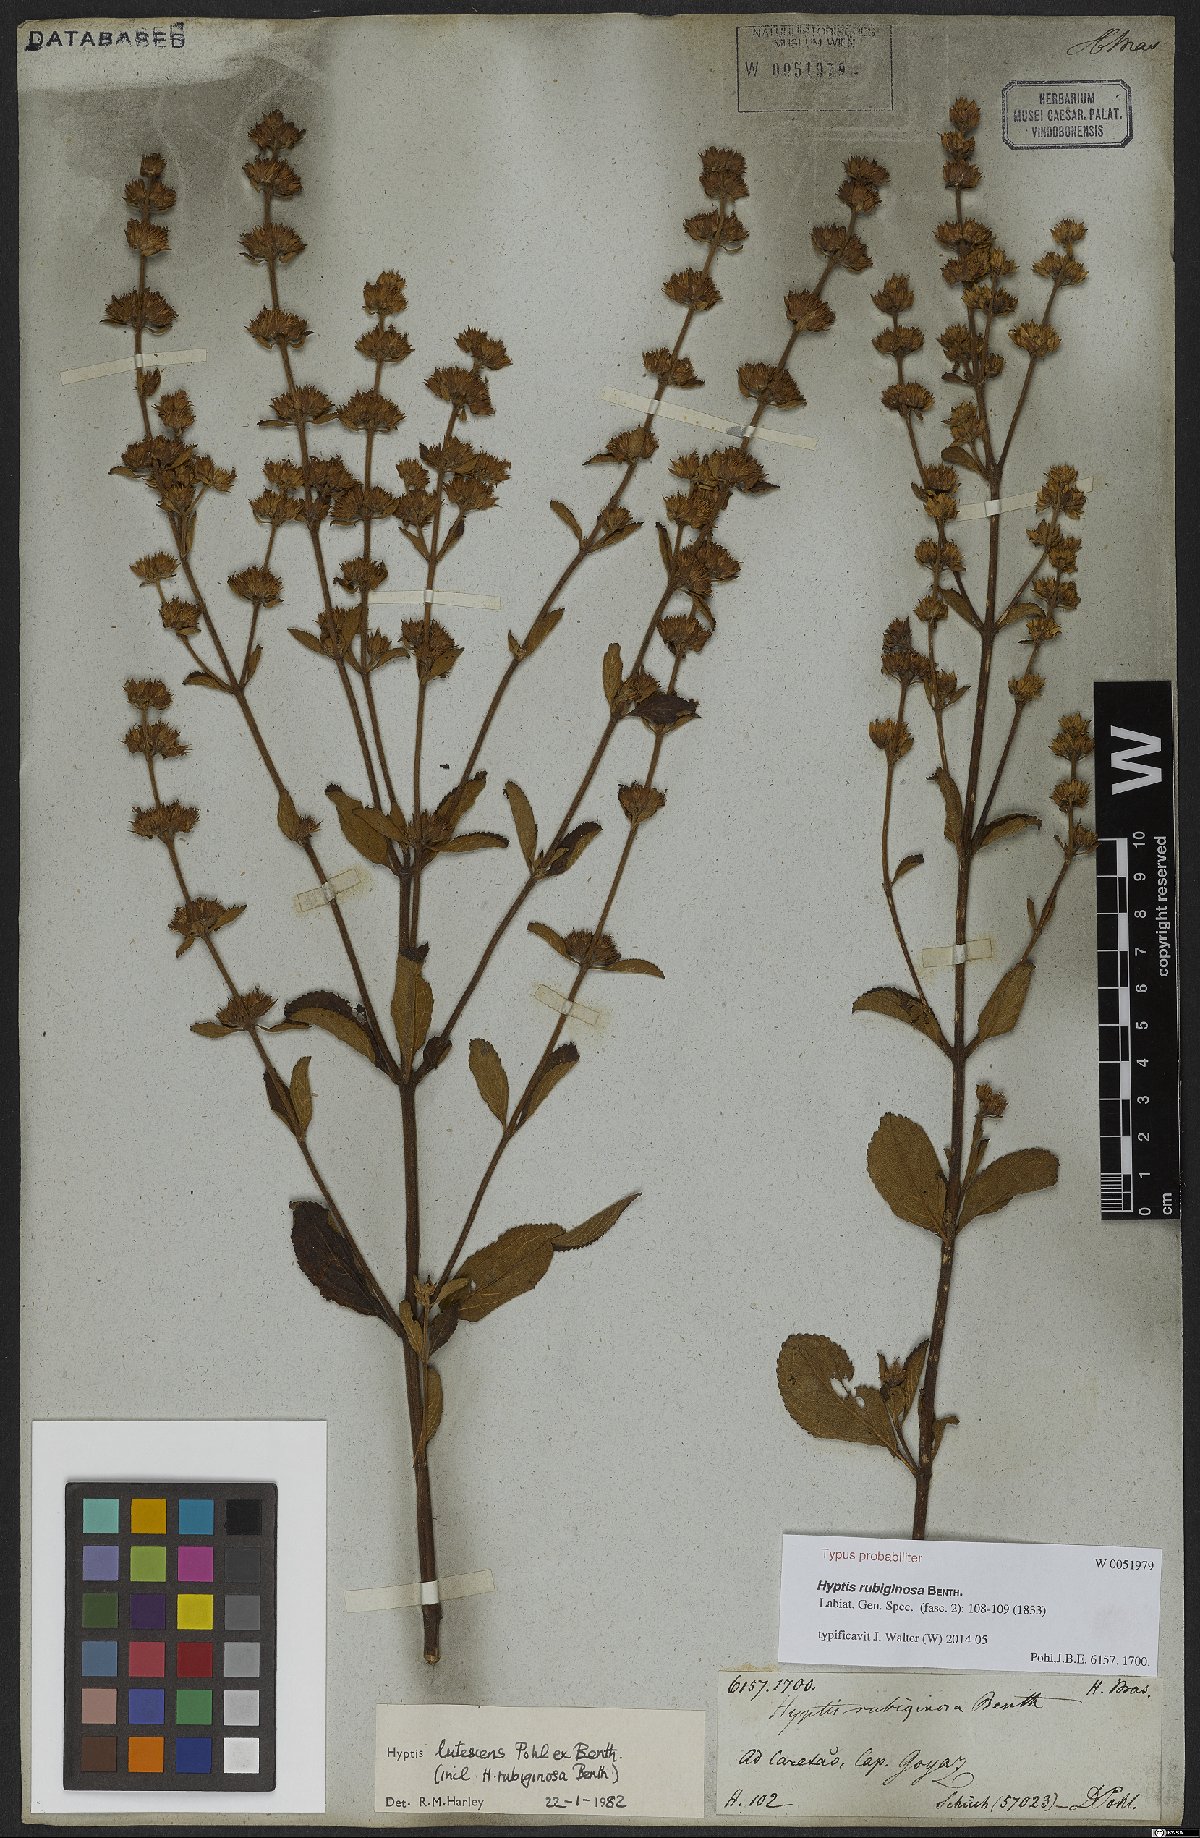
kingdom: Plantae
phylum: Tracheophyta
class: Magnoliopsida
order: Lamiales
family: Lamiaceae
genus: Hyptis
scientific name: Hyptis rubiginosa
